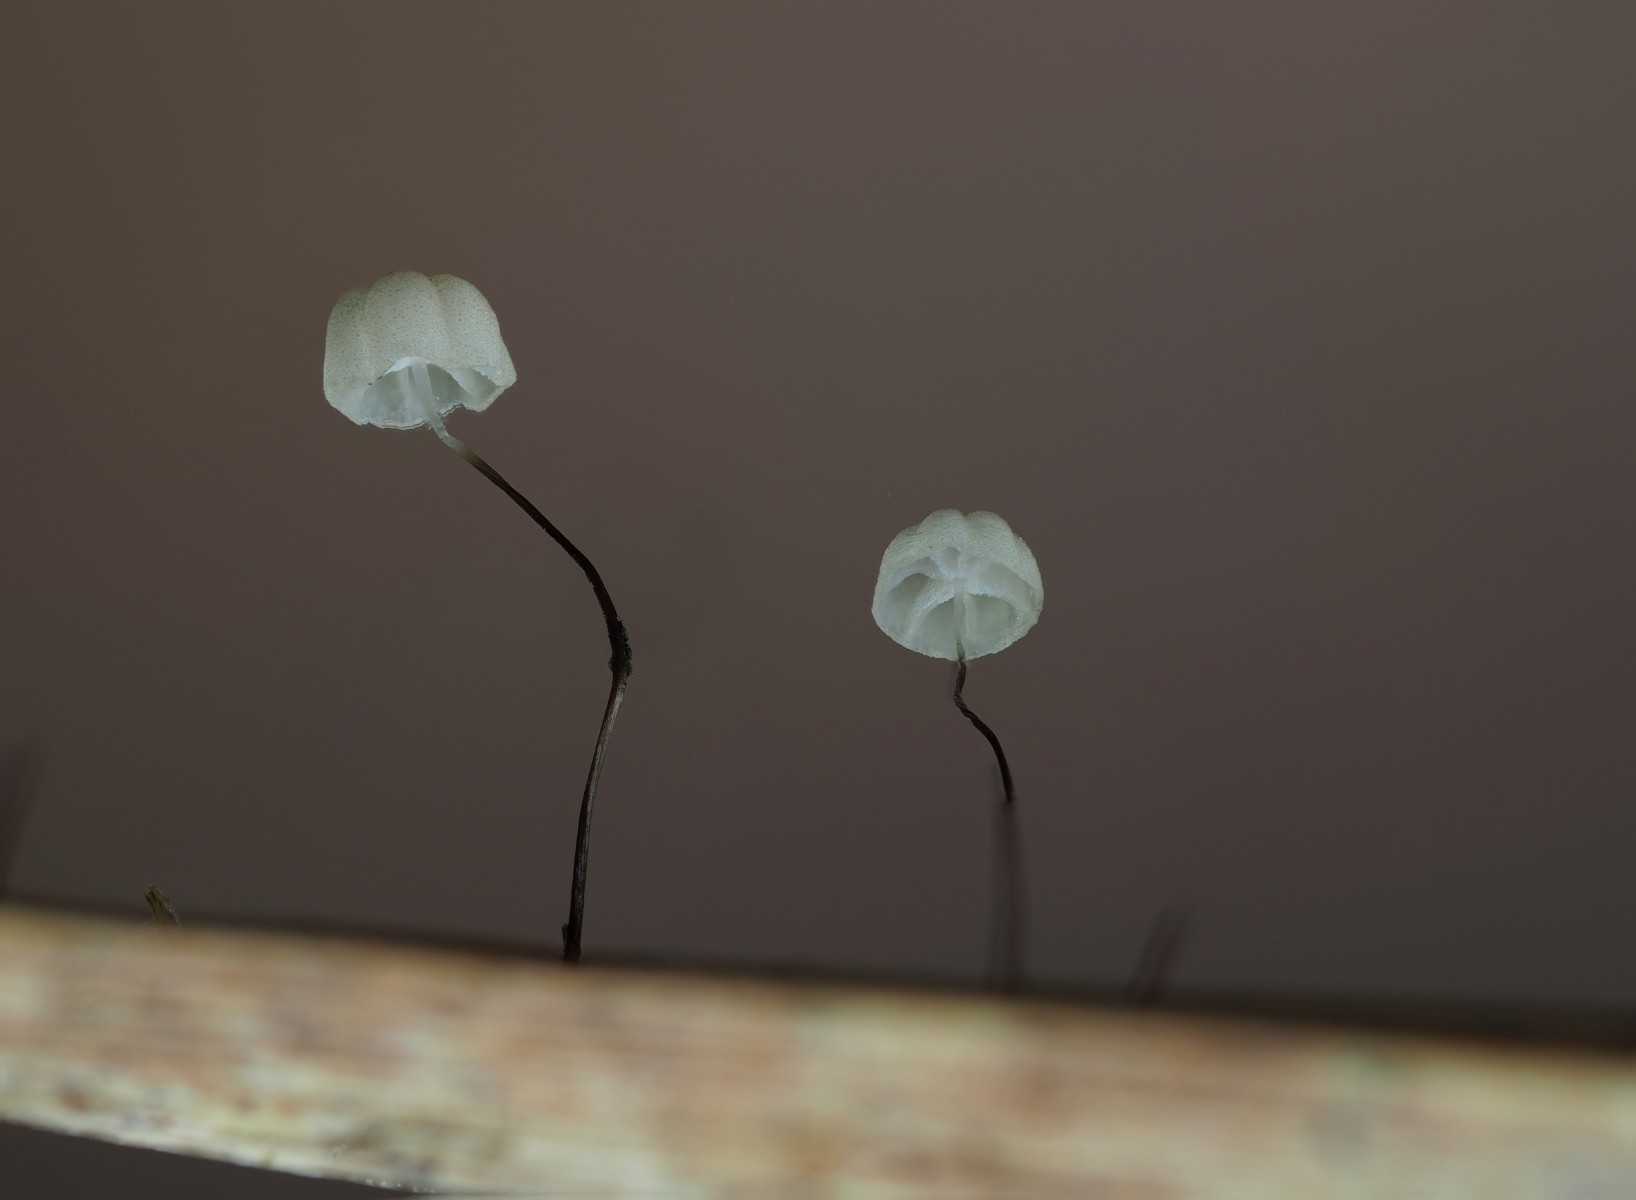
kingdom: Fungi
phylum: Basidiomycota
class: Agaricomycetes
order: Agaricales
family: Marasmiaceae
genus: Marasmius
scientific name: Marasmius limosus
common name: kær-bruskhat
